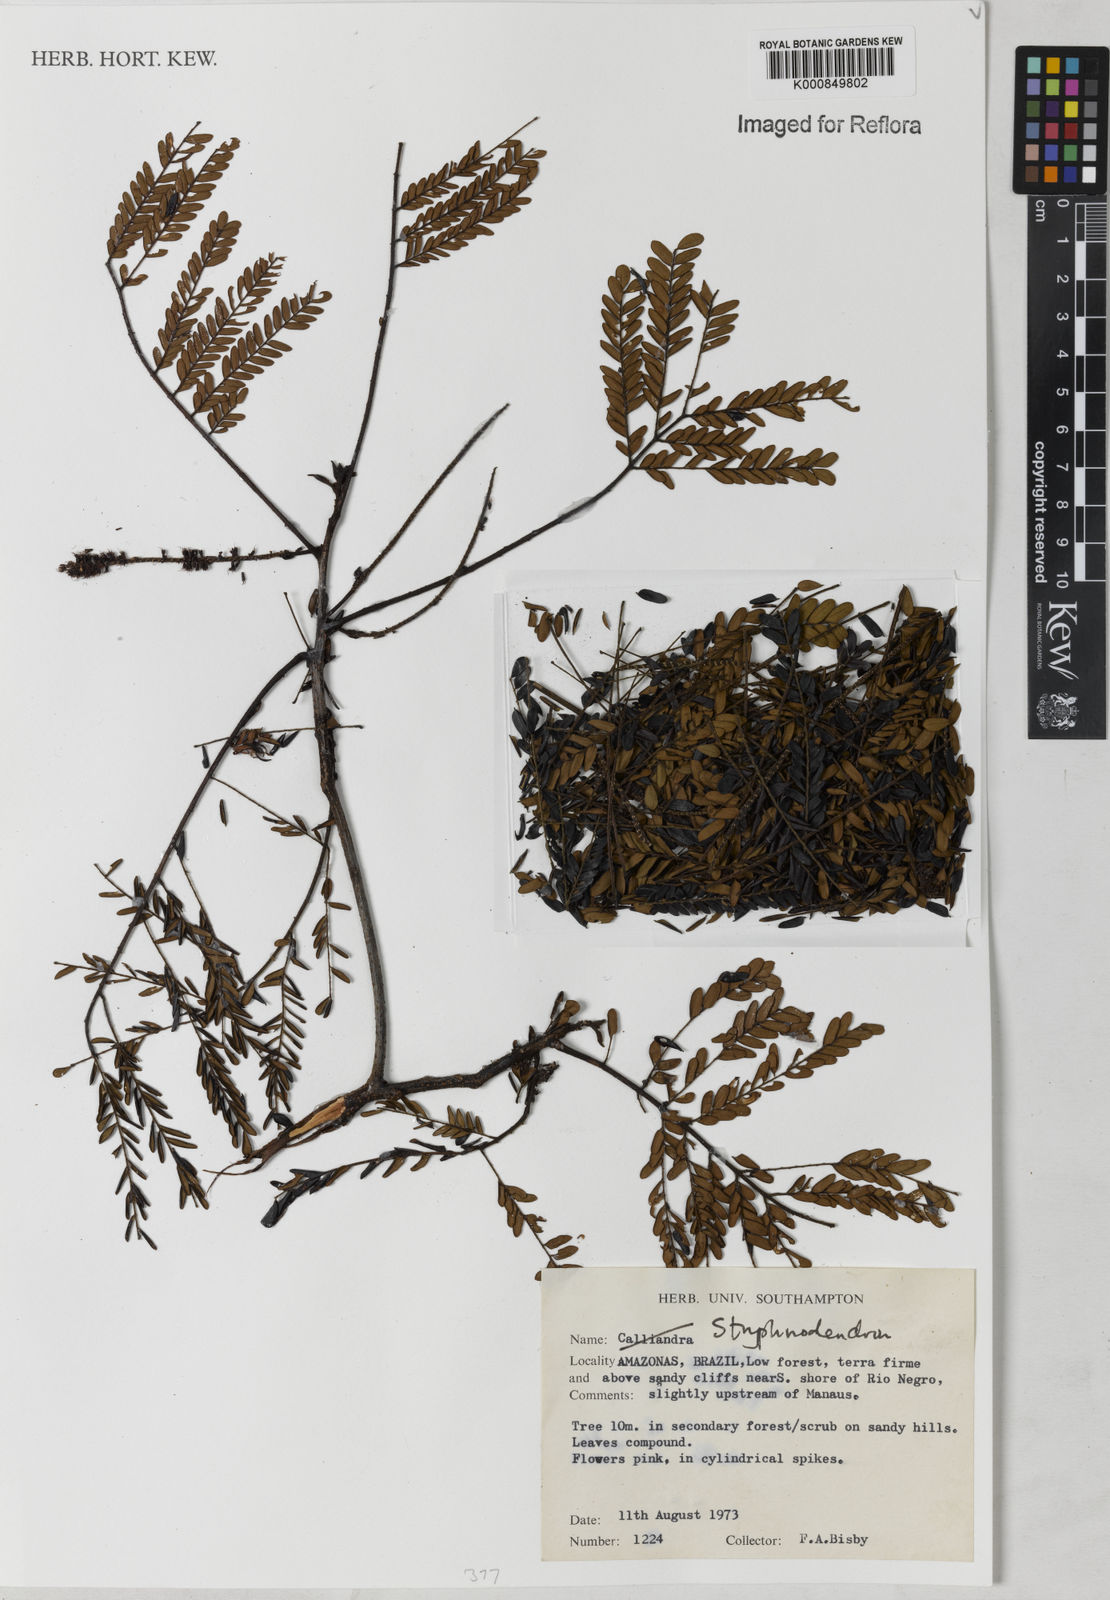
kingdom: Plantae
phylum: Tracheophyta
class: Magnoliopsida
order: Fabales
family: Fabaceae
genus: Stryphnodendron
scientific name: Stryphnodendron
